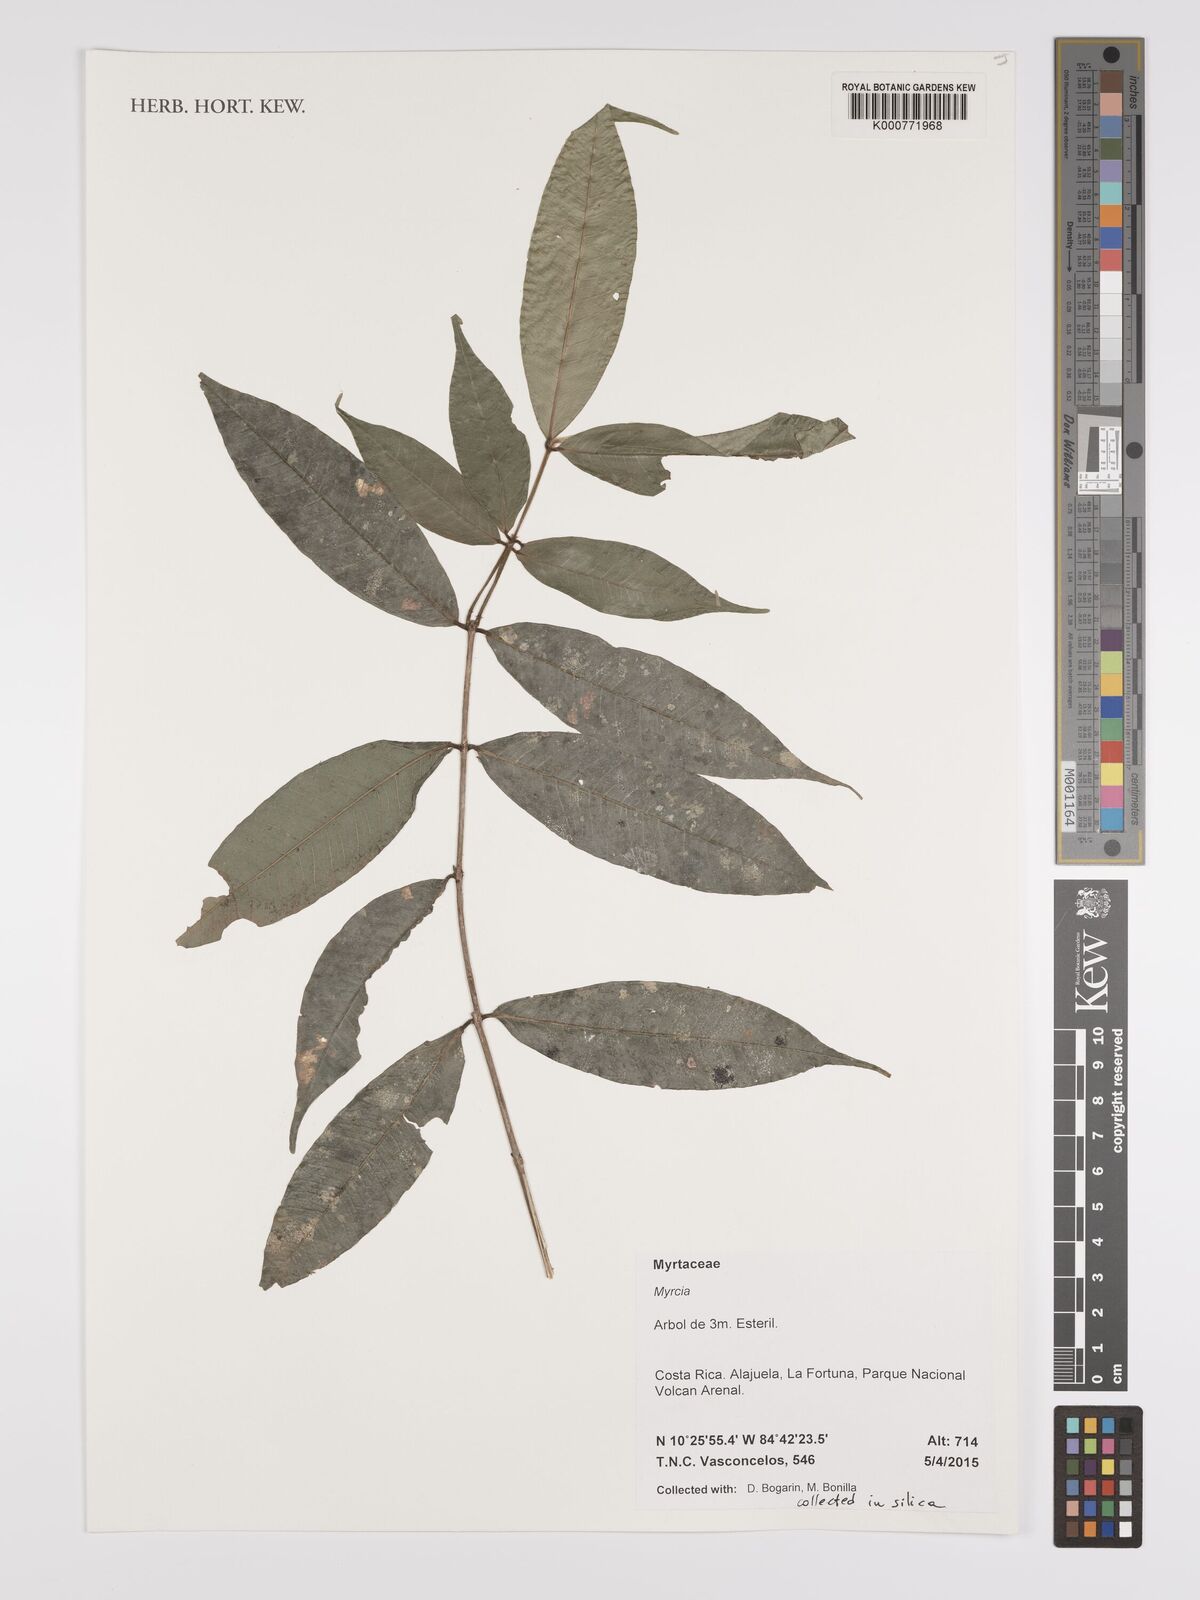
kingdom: Plantae
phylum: Tracheophyta
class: Magnoliopsida
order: Myrtales
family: Myrtaceae
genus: Myrcia
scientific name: Myrcia
